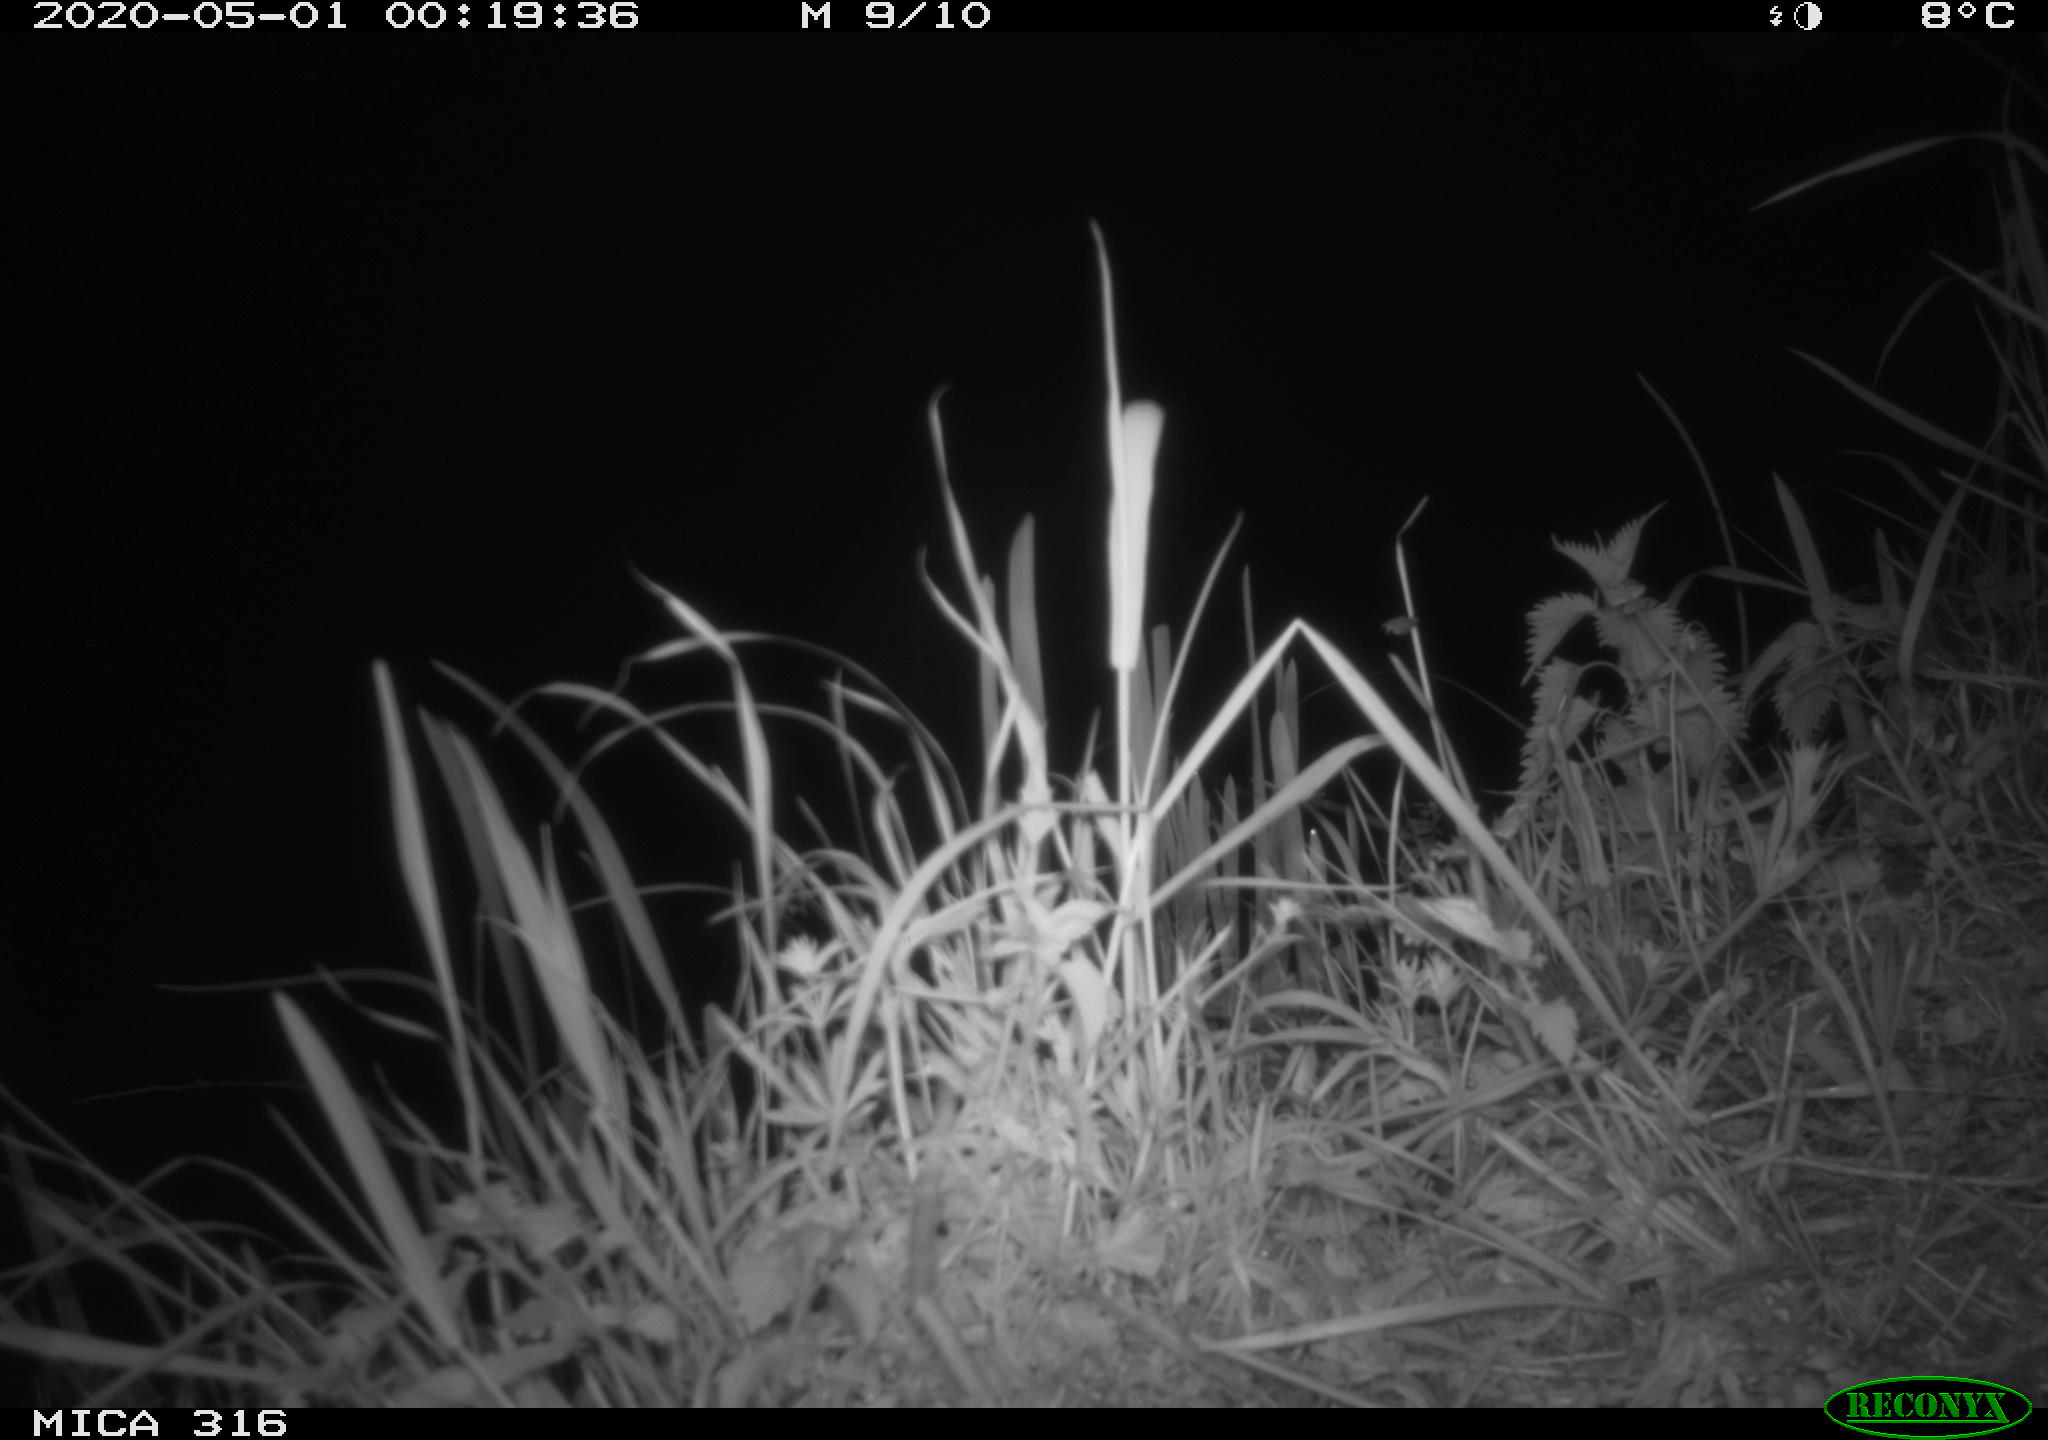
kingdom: Animalia
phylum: Chordata
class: Aves
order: Anseriformes
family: Anatidae
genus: Anas
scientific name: Anas platyrhynchos
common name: Mallard
